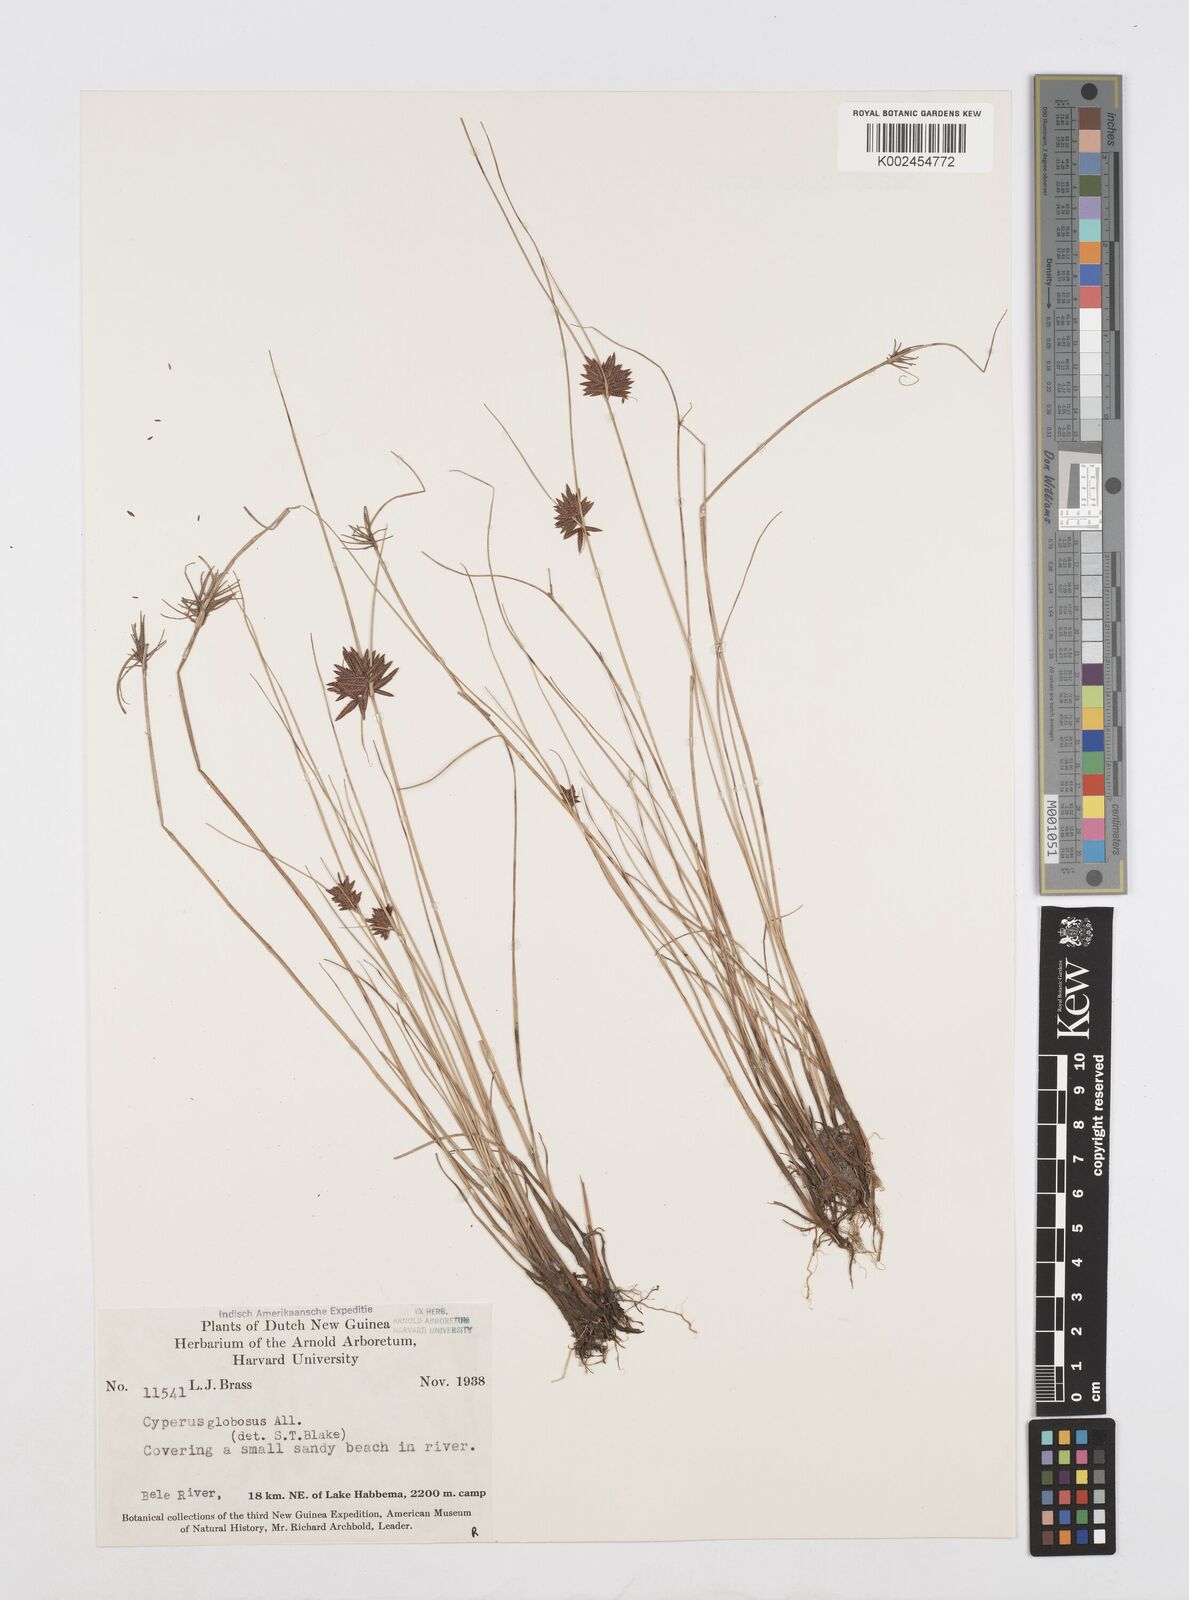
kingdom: Plantae
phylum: Tracheophyta
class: Liliopsida
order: Poales
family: Cyperaceae
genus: Cyperus
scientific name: Cyperus flavidus
